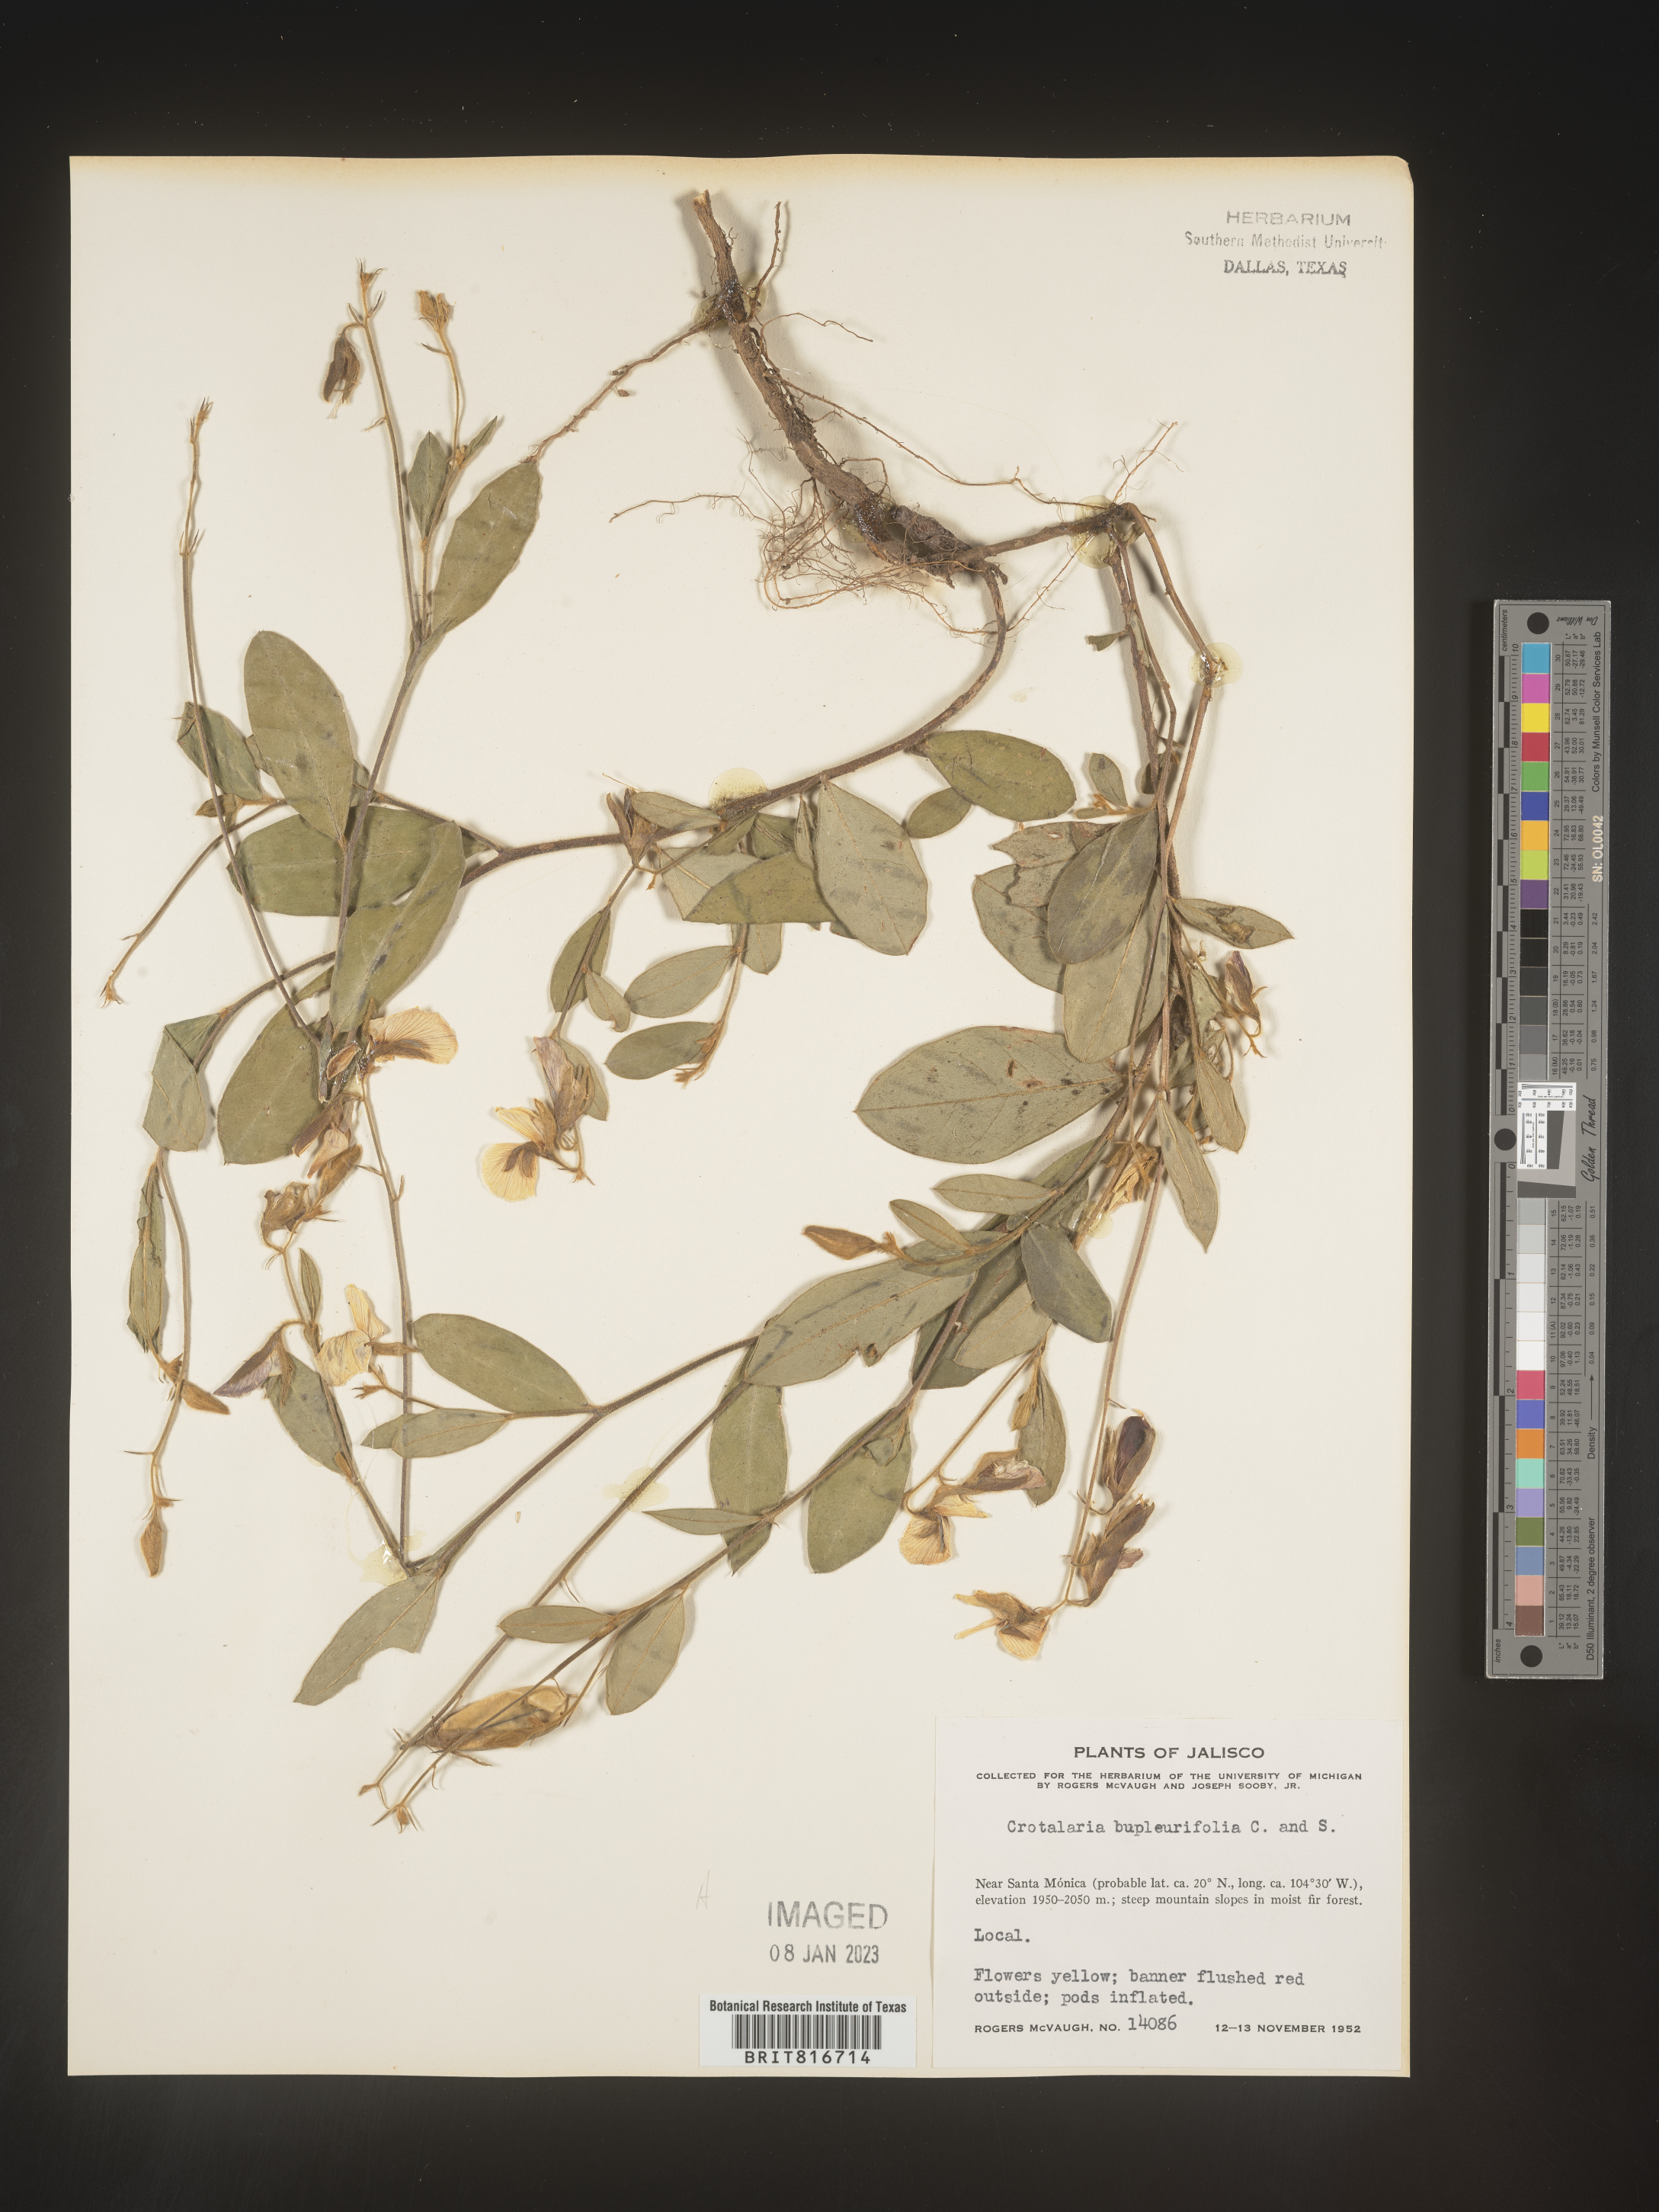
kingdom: Plantae
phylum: Tracheophyta
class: Magnoliopsida
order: Fabales
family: Fabaceae
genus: Crotalaria
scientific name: Crotalaria
